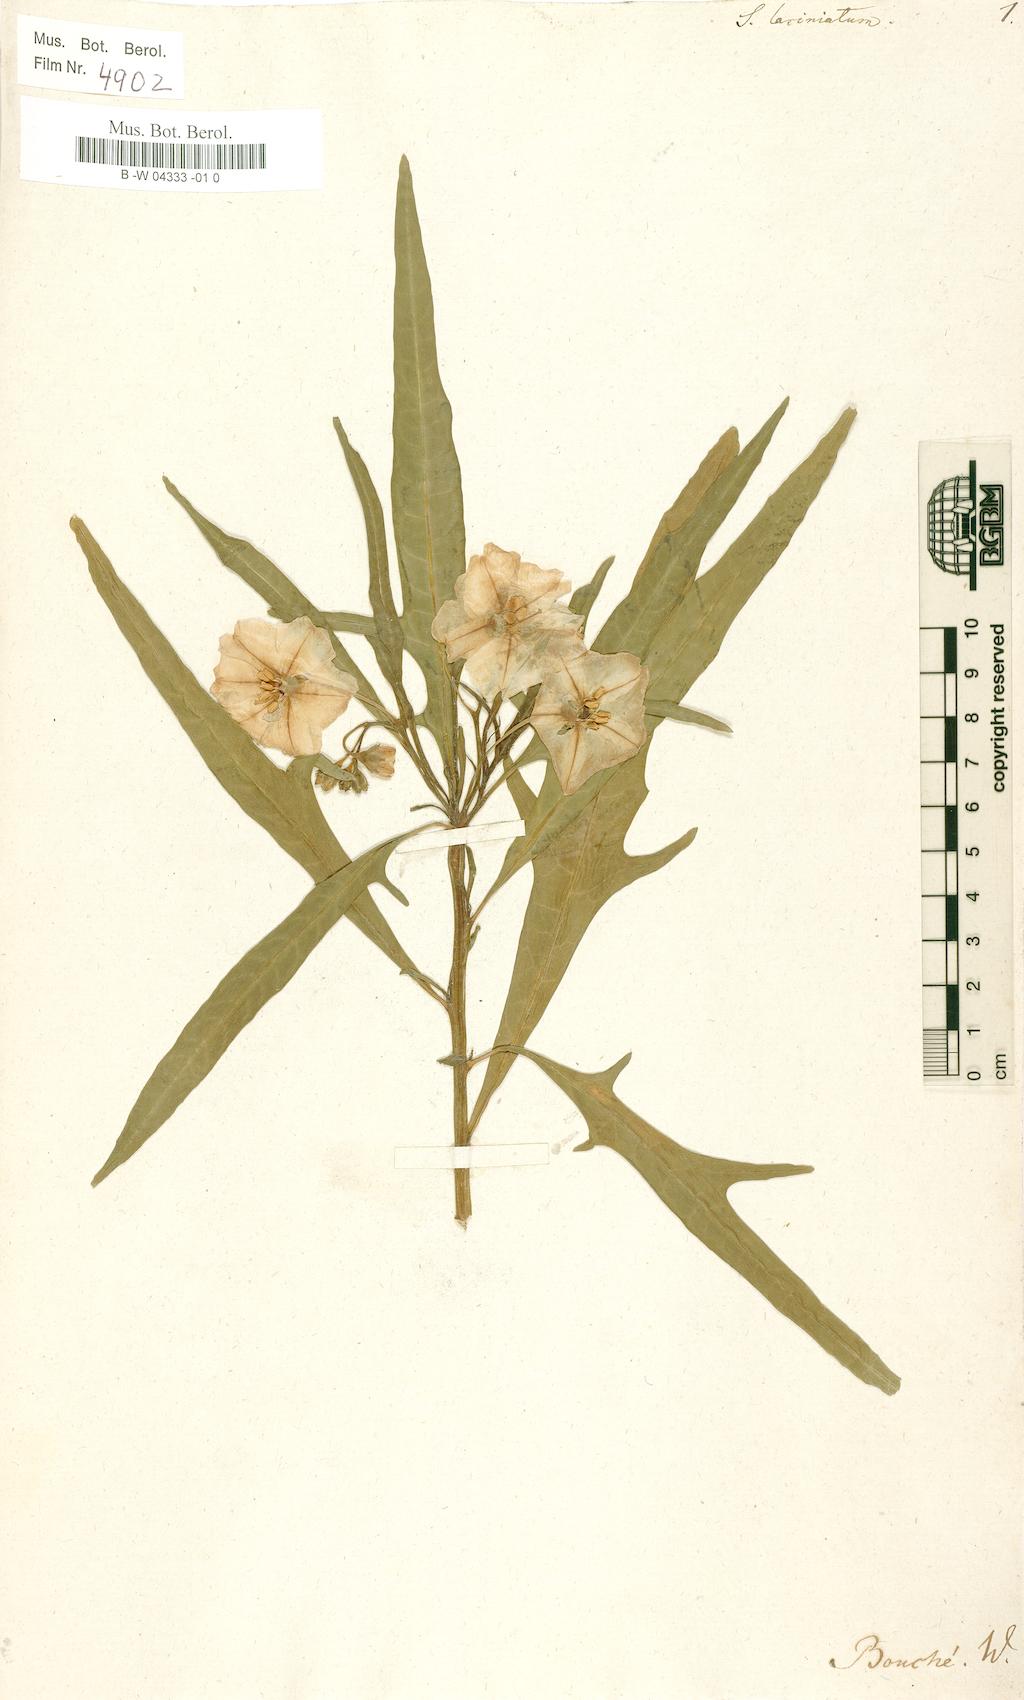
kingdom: Plantae
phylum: Tracheophyta
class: Magnoliopsida
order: Solanales
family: Solanaceae
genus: Solanum
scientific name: Solanum laciniatum
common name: Kangaroo-apple
